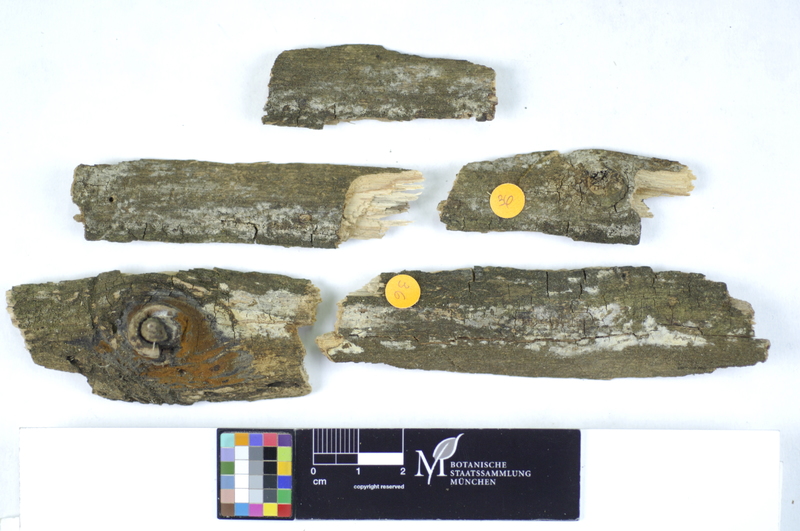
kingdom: Plantae
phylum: Tracheophyta
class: Magnoliopsida
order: Lamiales
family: Oleaceae
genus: Fraxinus
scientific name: Fraxinus
